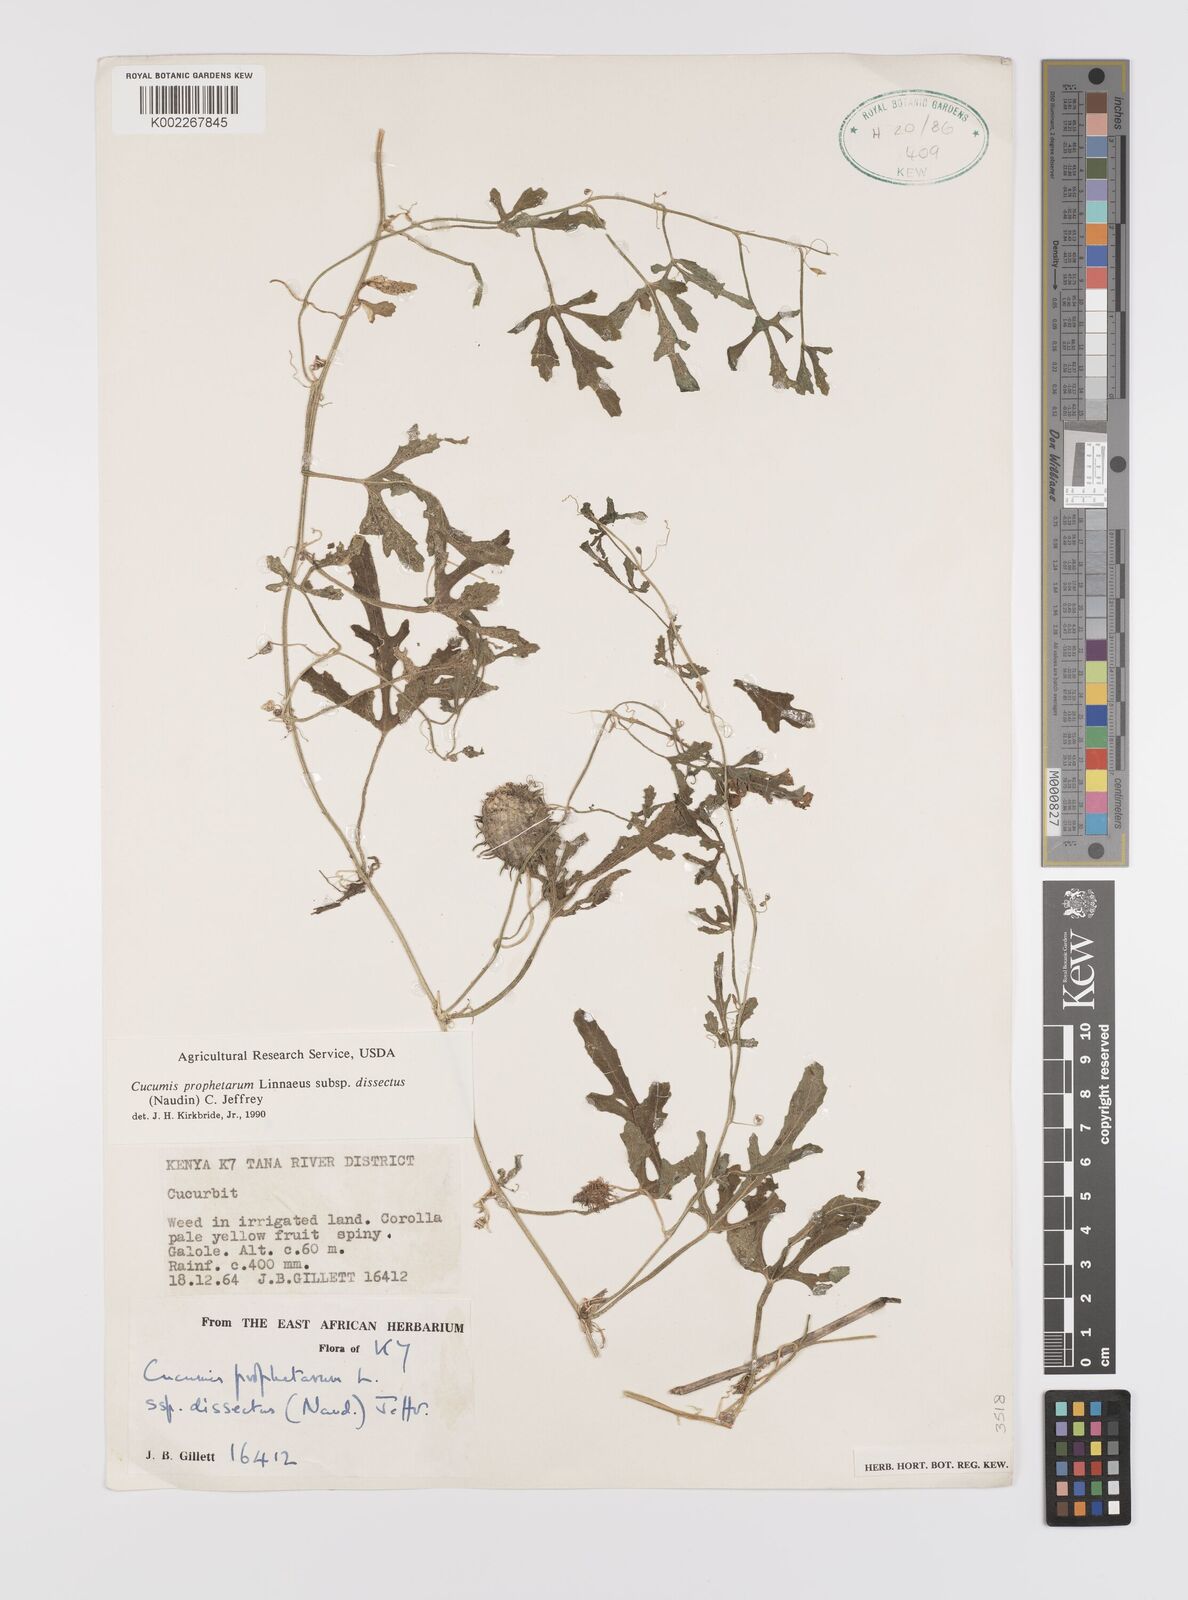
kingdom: Plantae
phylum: Tracheophyta
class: Magnoliopsida
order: Cucurbitales
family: Cucurbitaceae
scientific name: Cucurbitaceae
